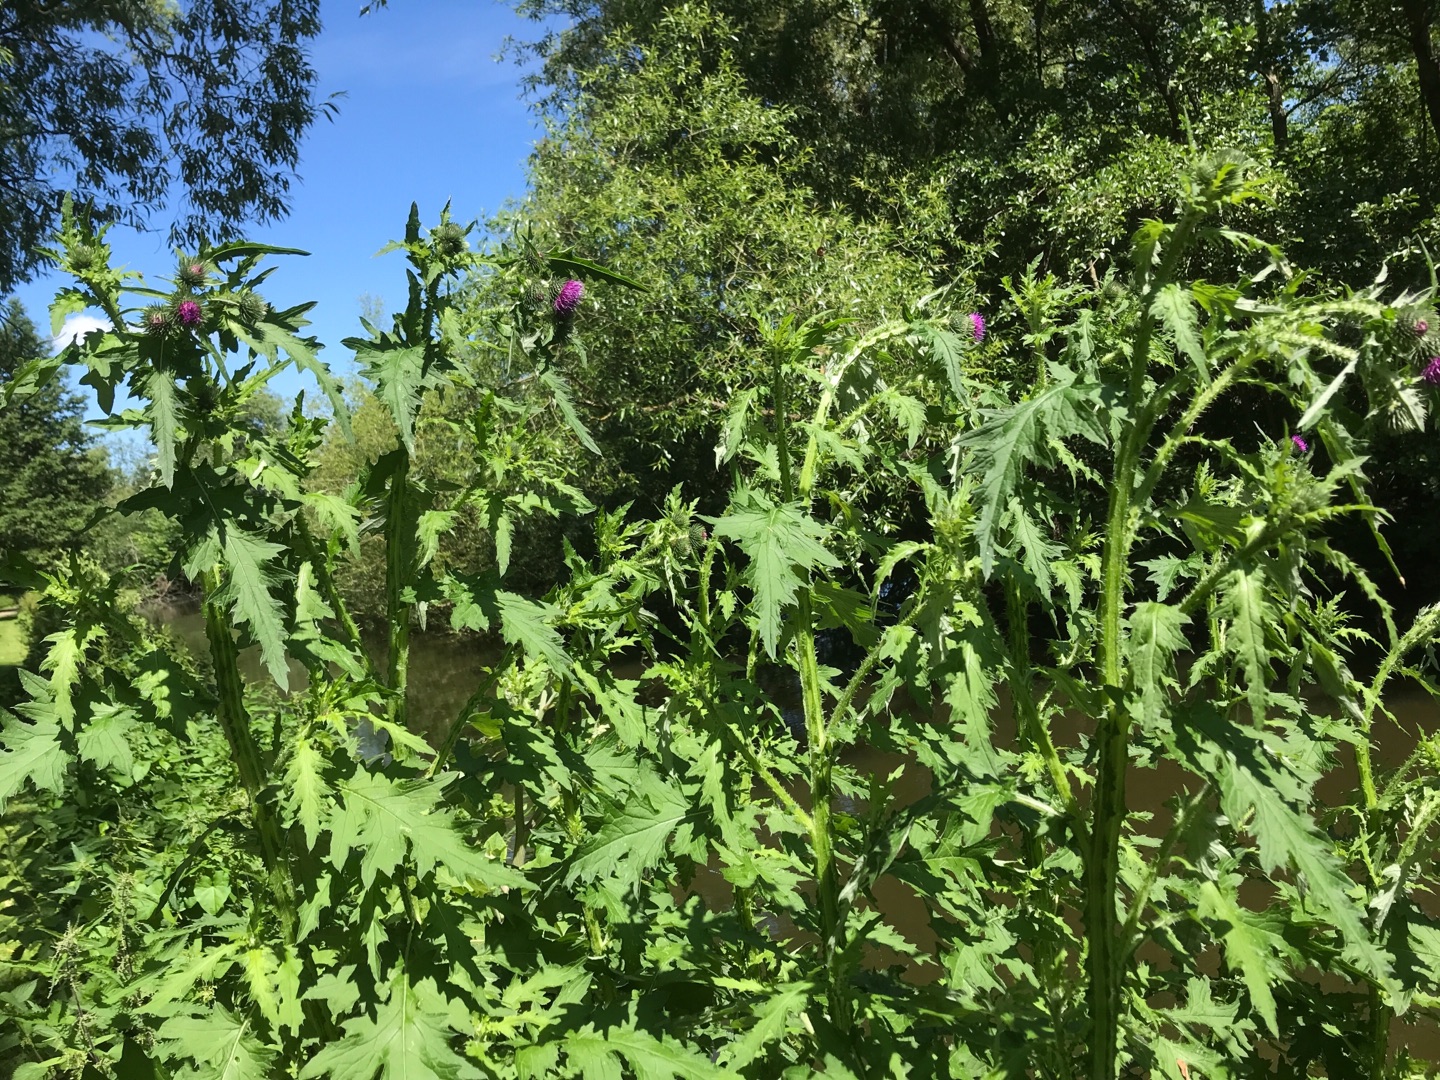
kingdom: Plantae
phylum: Tracheophyta
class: Magnoliopsida
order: Asterales
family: Asteraceae
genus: Carduus
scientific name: Carduus crispus
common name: Kruset tidsel
